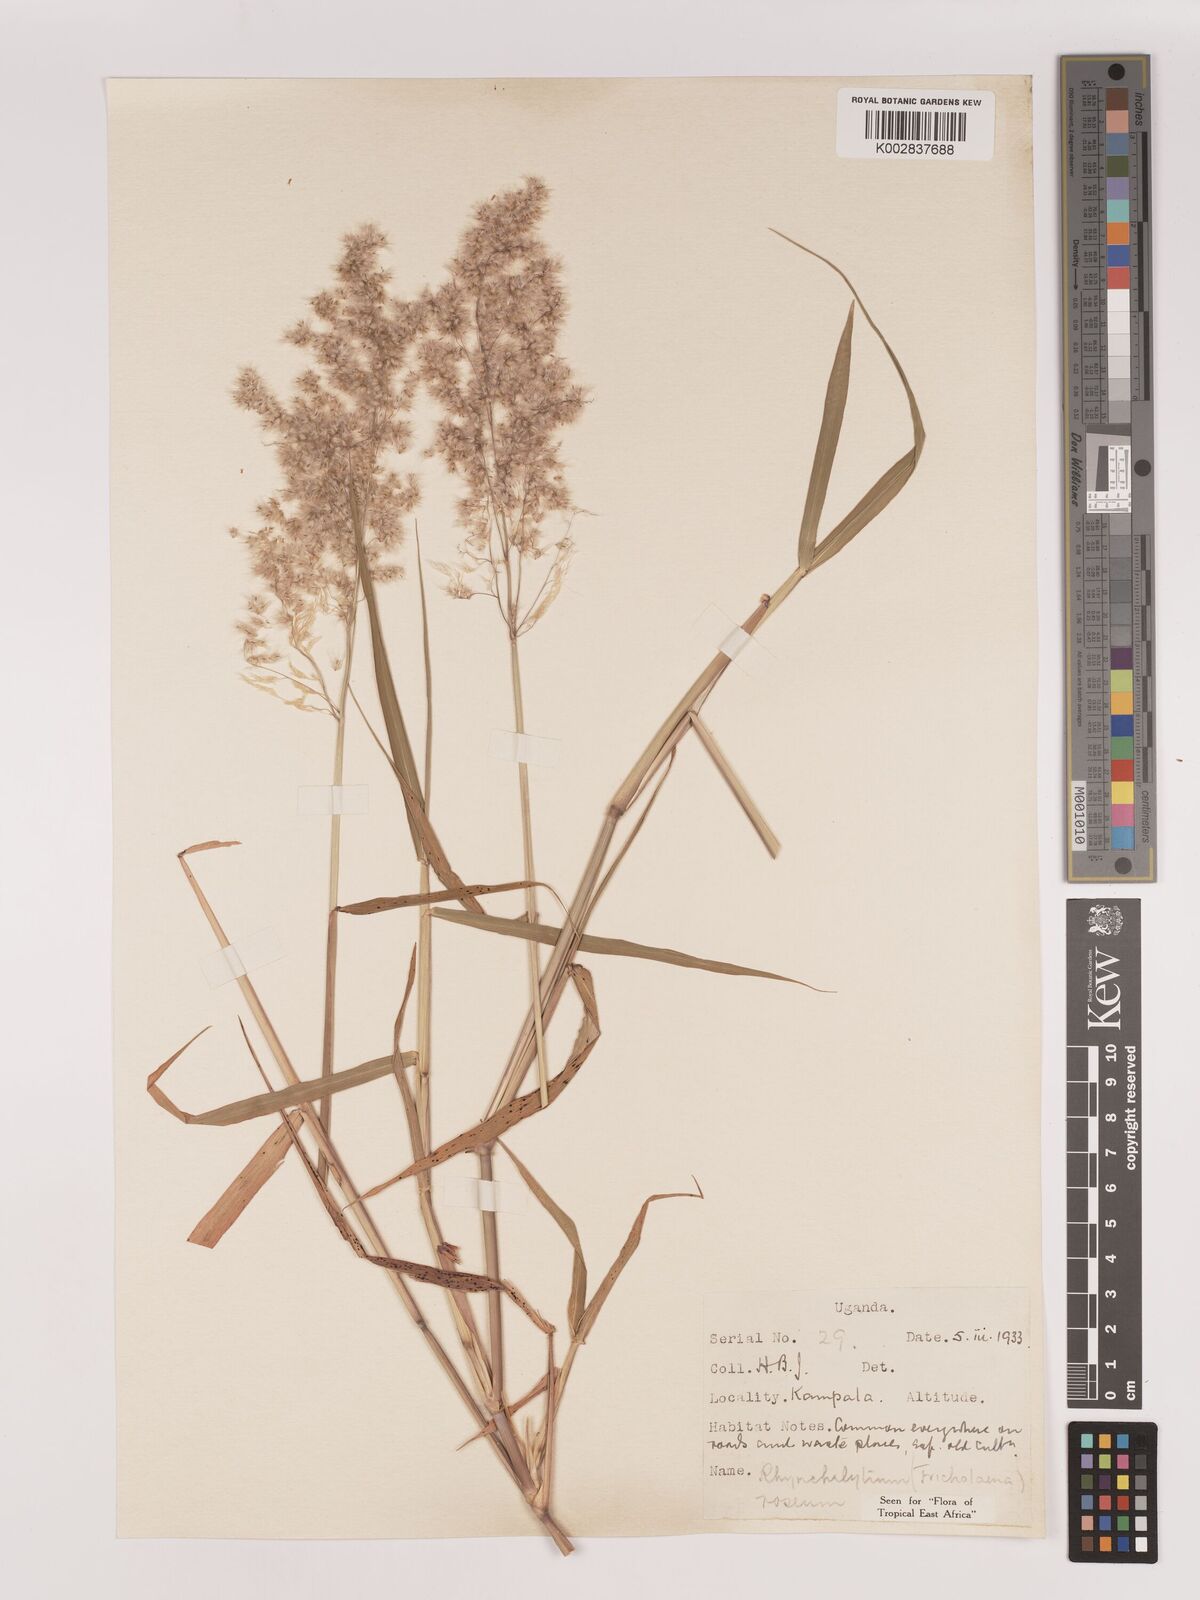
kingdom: Plantae
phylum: Tracheophyta
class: Liliopsida
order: Poales
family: Poaceae
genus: Melinis
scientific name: Melinis repens
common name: Rose natal grass
